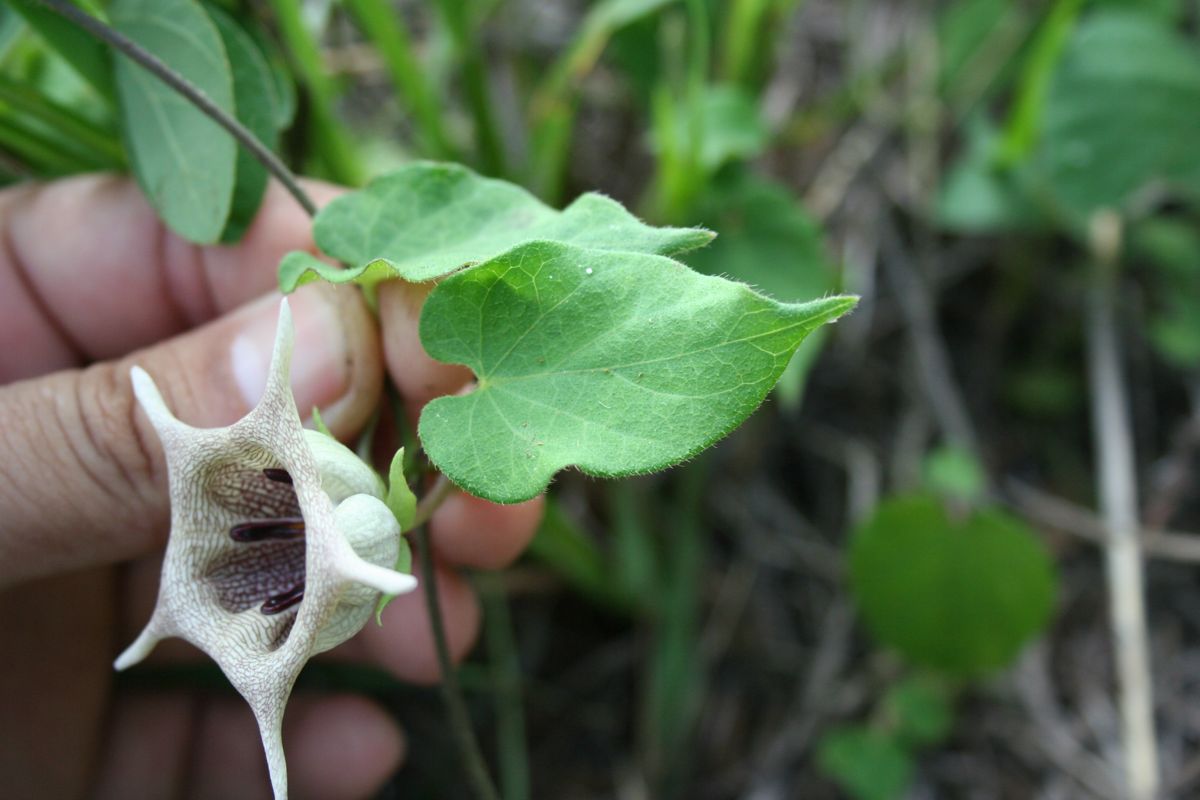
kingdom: Plantae
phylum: Tracheophyta
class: Magnoliopsida
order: Gentianales
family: Apocynaceae
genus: Dictyanthus
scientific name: Dictyanthus ceratopetalus
